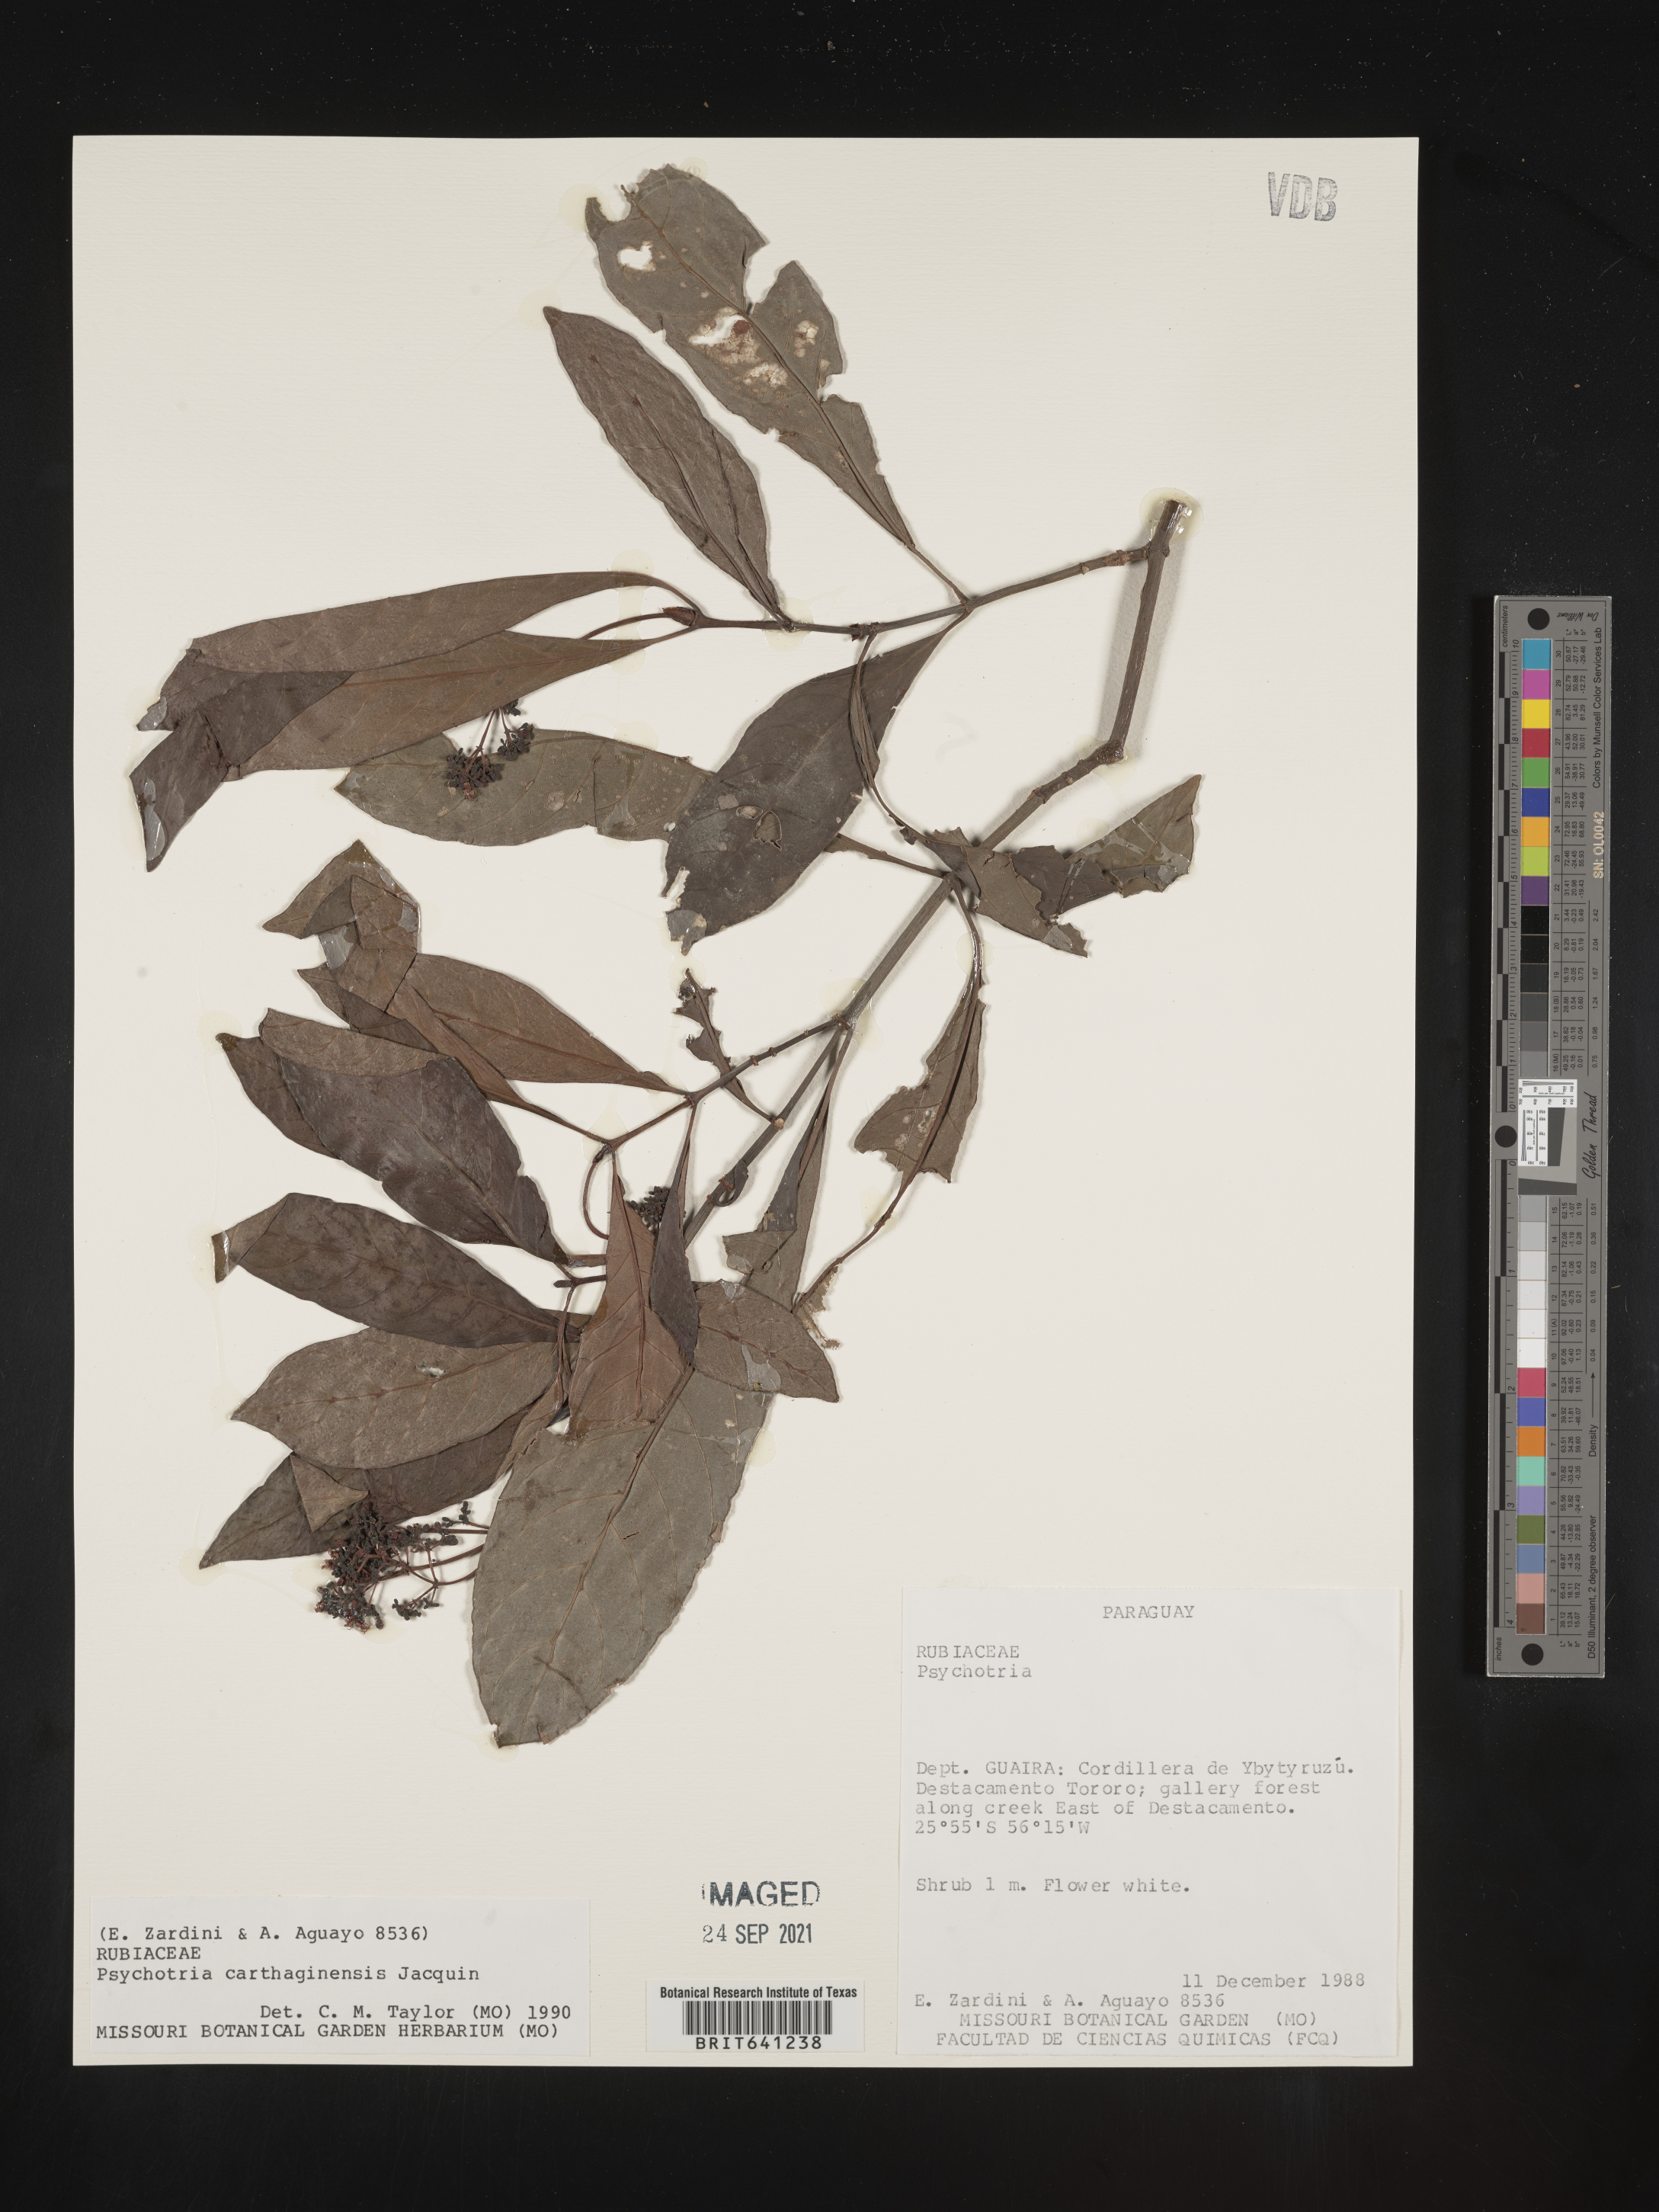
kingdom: Plantae
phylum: Tracheophyta
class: Magnoliopsida
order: Gentianales
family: Rubiaceae
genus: Psychotria
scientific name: Psychotria
